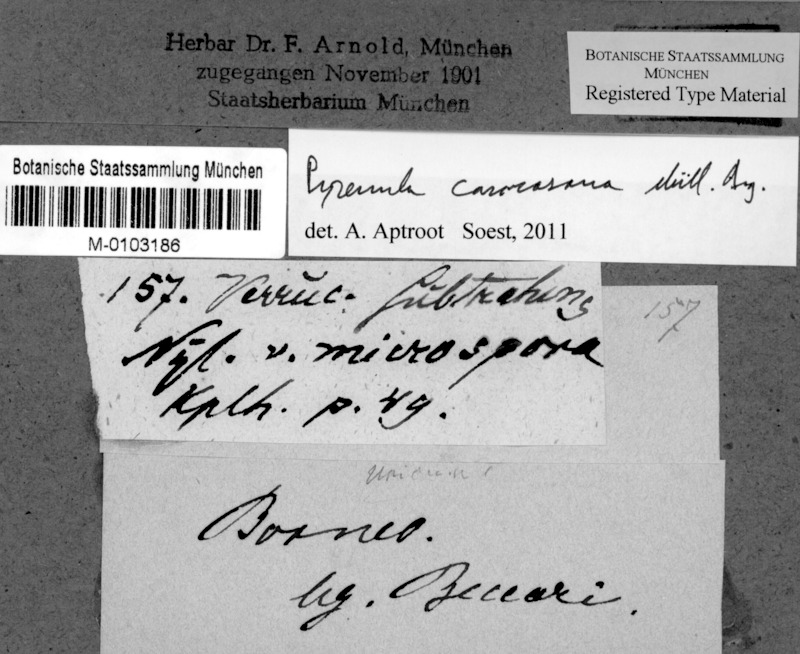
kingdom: Fungi
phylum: Ascomycota
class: Eurotiomycetes
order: Pyrenulales
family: Pyrenulaceae
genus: Pyrenula
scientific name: Pyrenula caracasana
